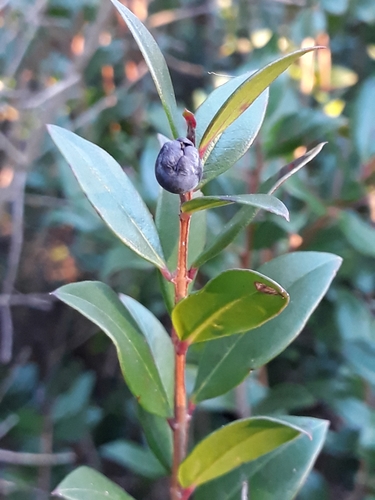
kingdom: Plantae
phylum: Tracheophyta
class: Magnoliopsida
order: Myrtales
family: Myrtaceae
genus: Myrtus
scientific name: Myrtus communis
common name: Myrtle
